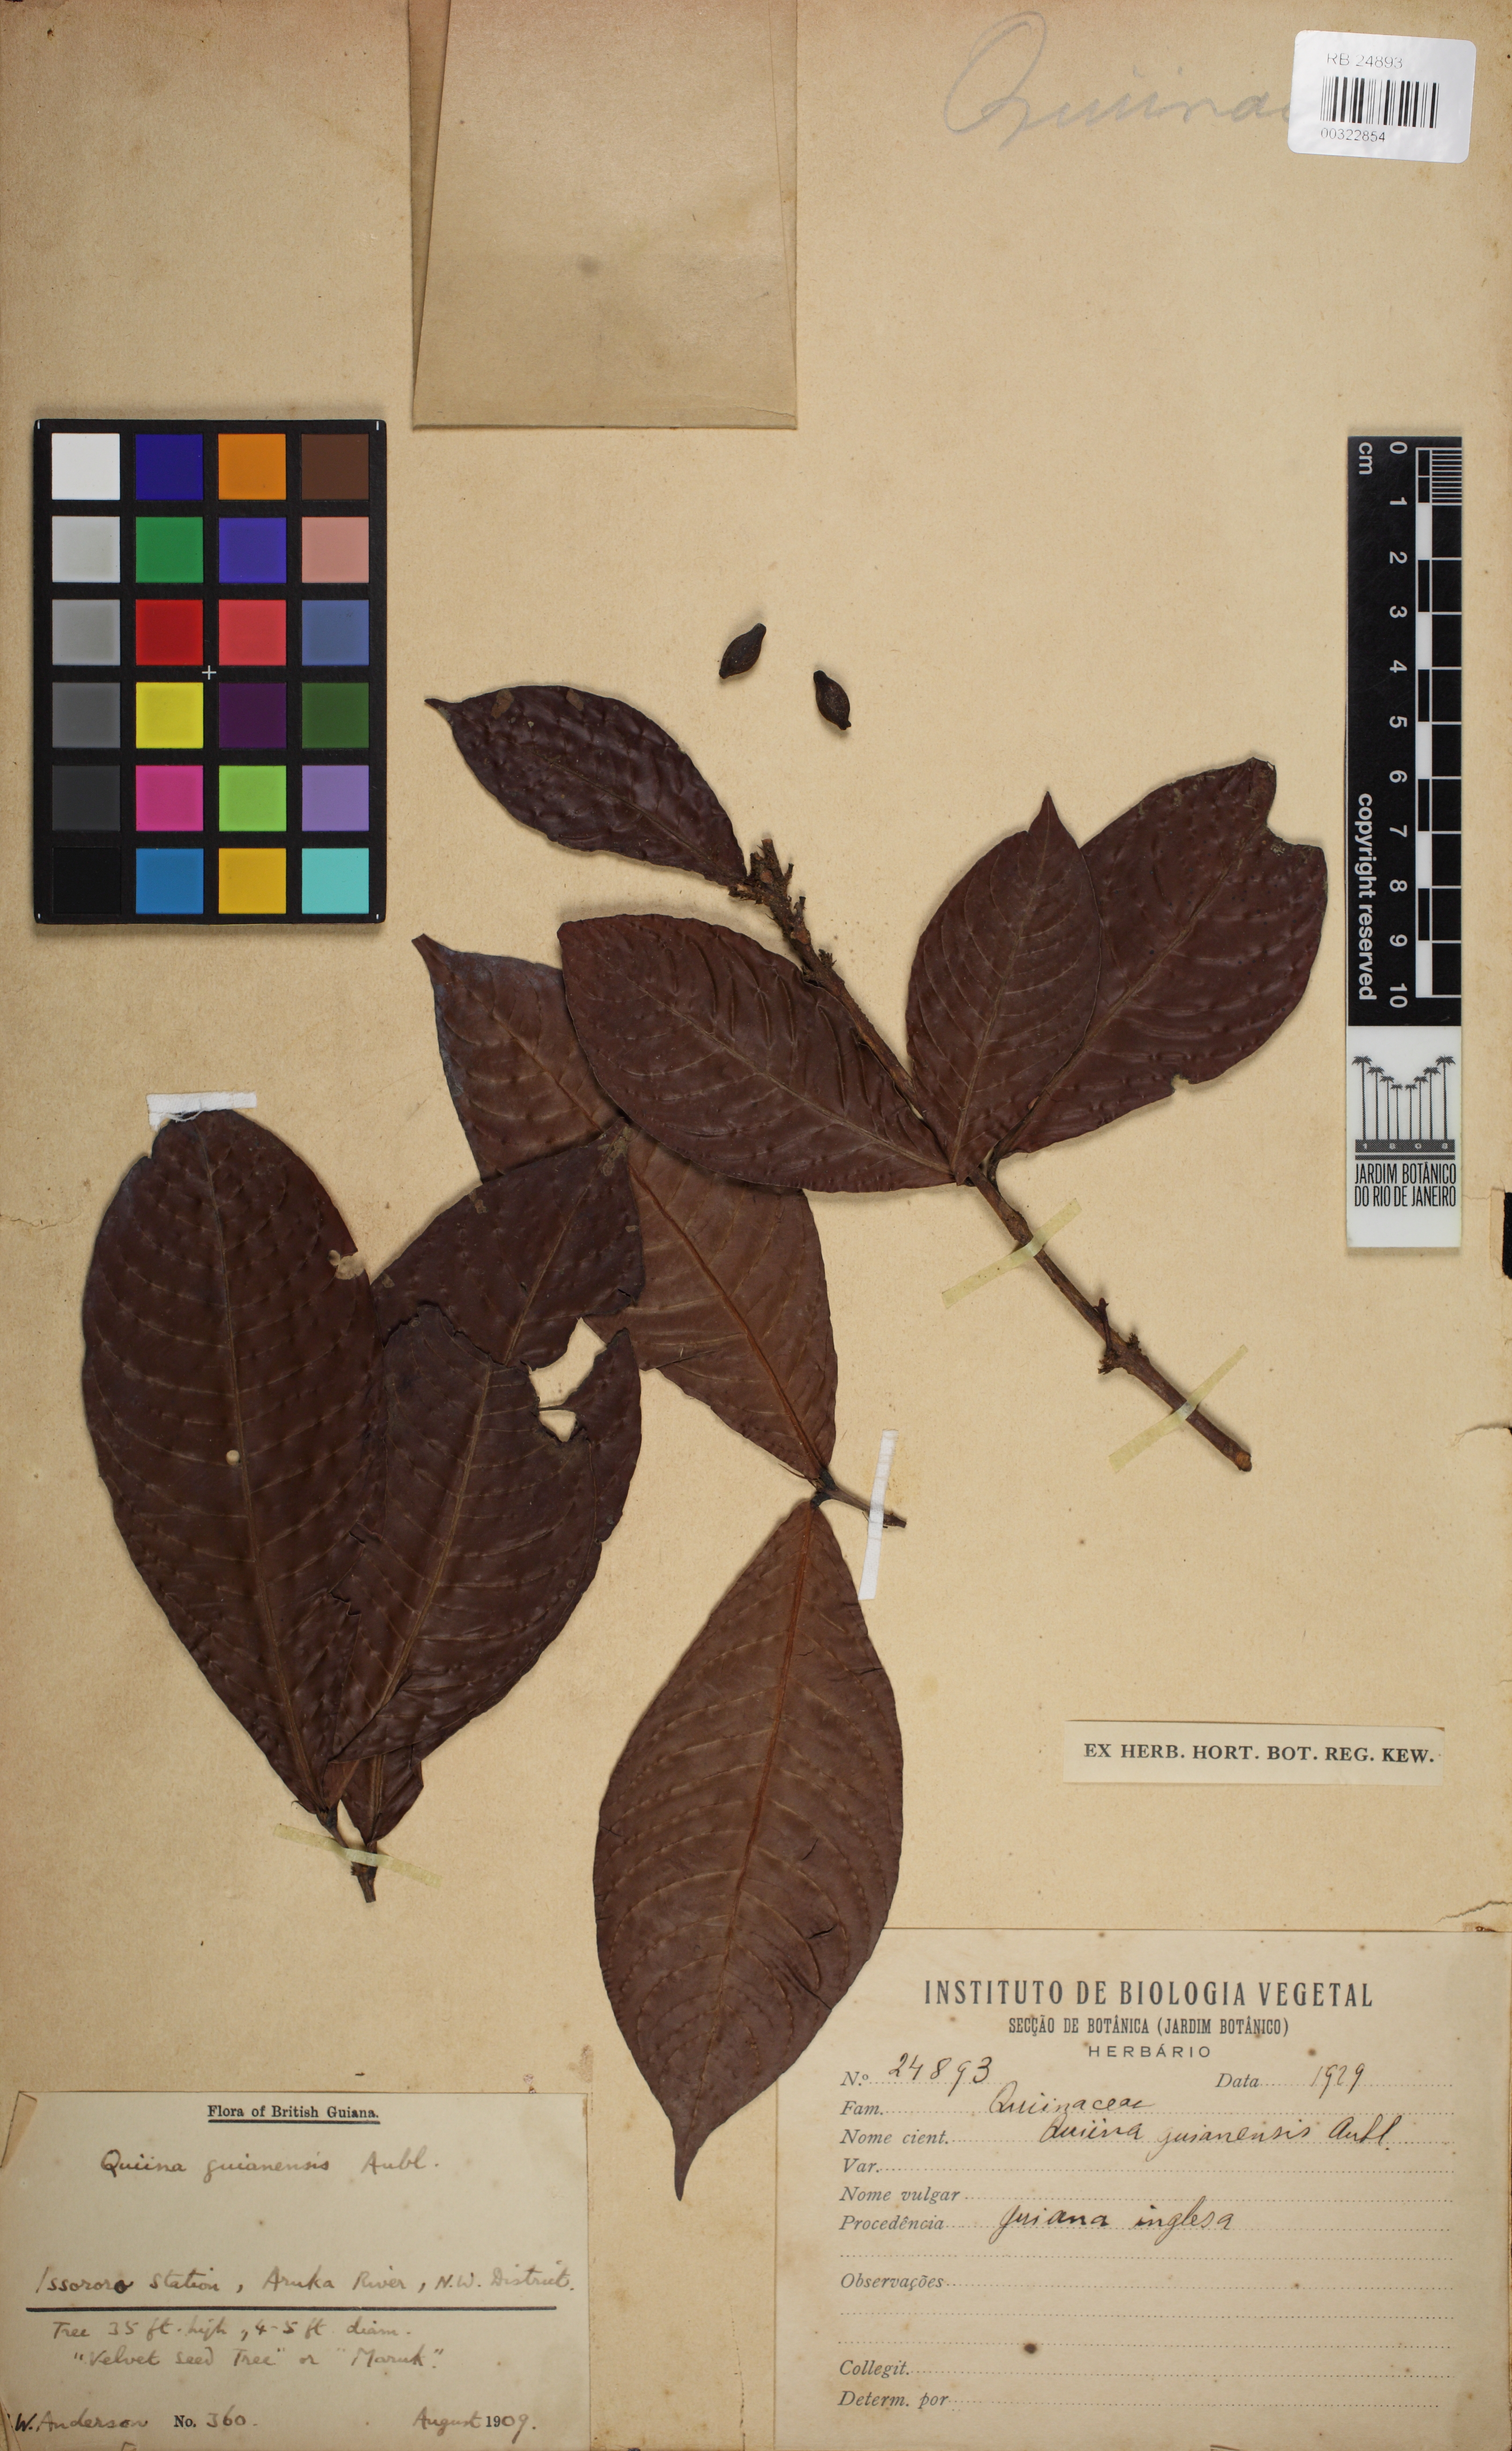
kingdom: Plantae
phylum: Tracheophyta
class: Magnoliopsida
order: Malpighiales
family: Quiinaceae
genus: Quiina
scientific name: Quiina guianensis
